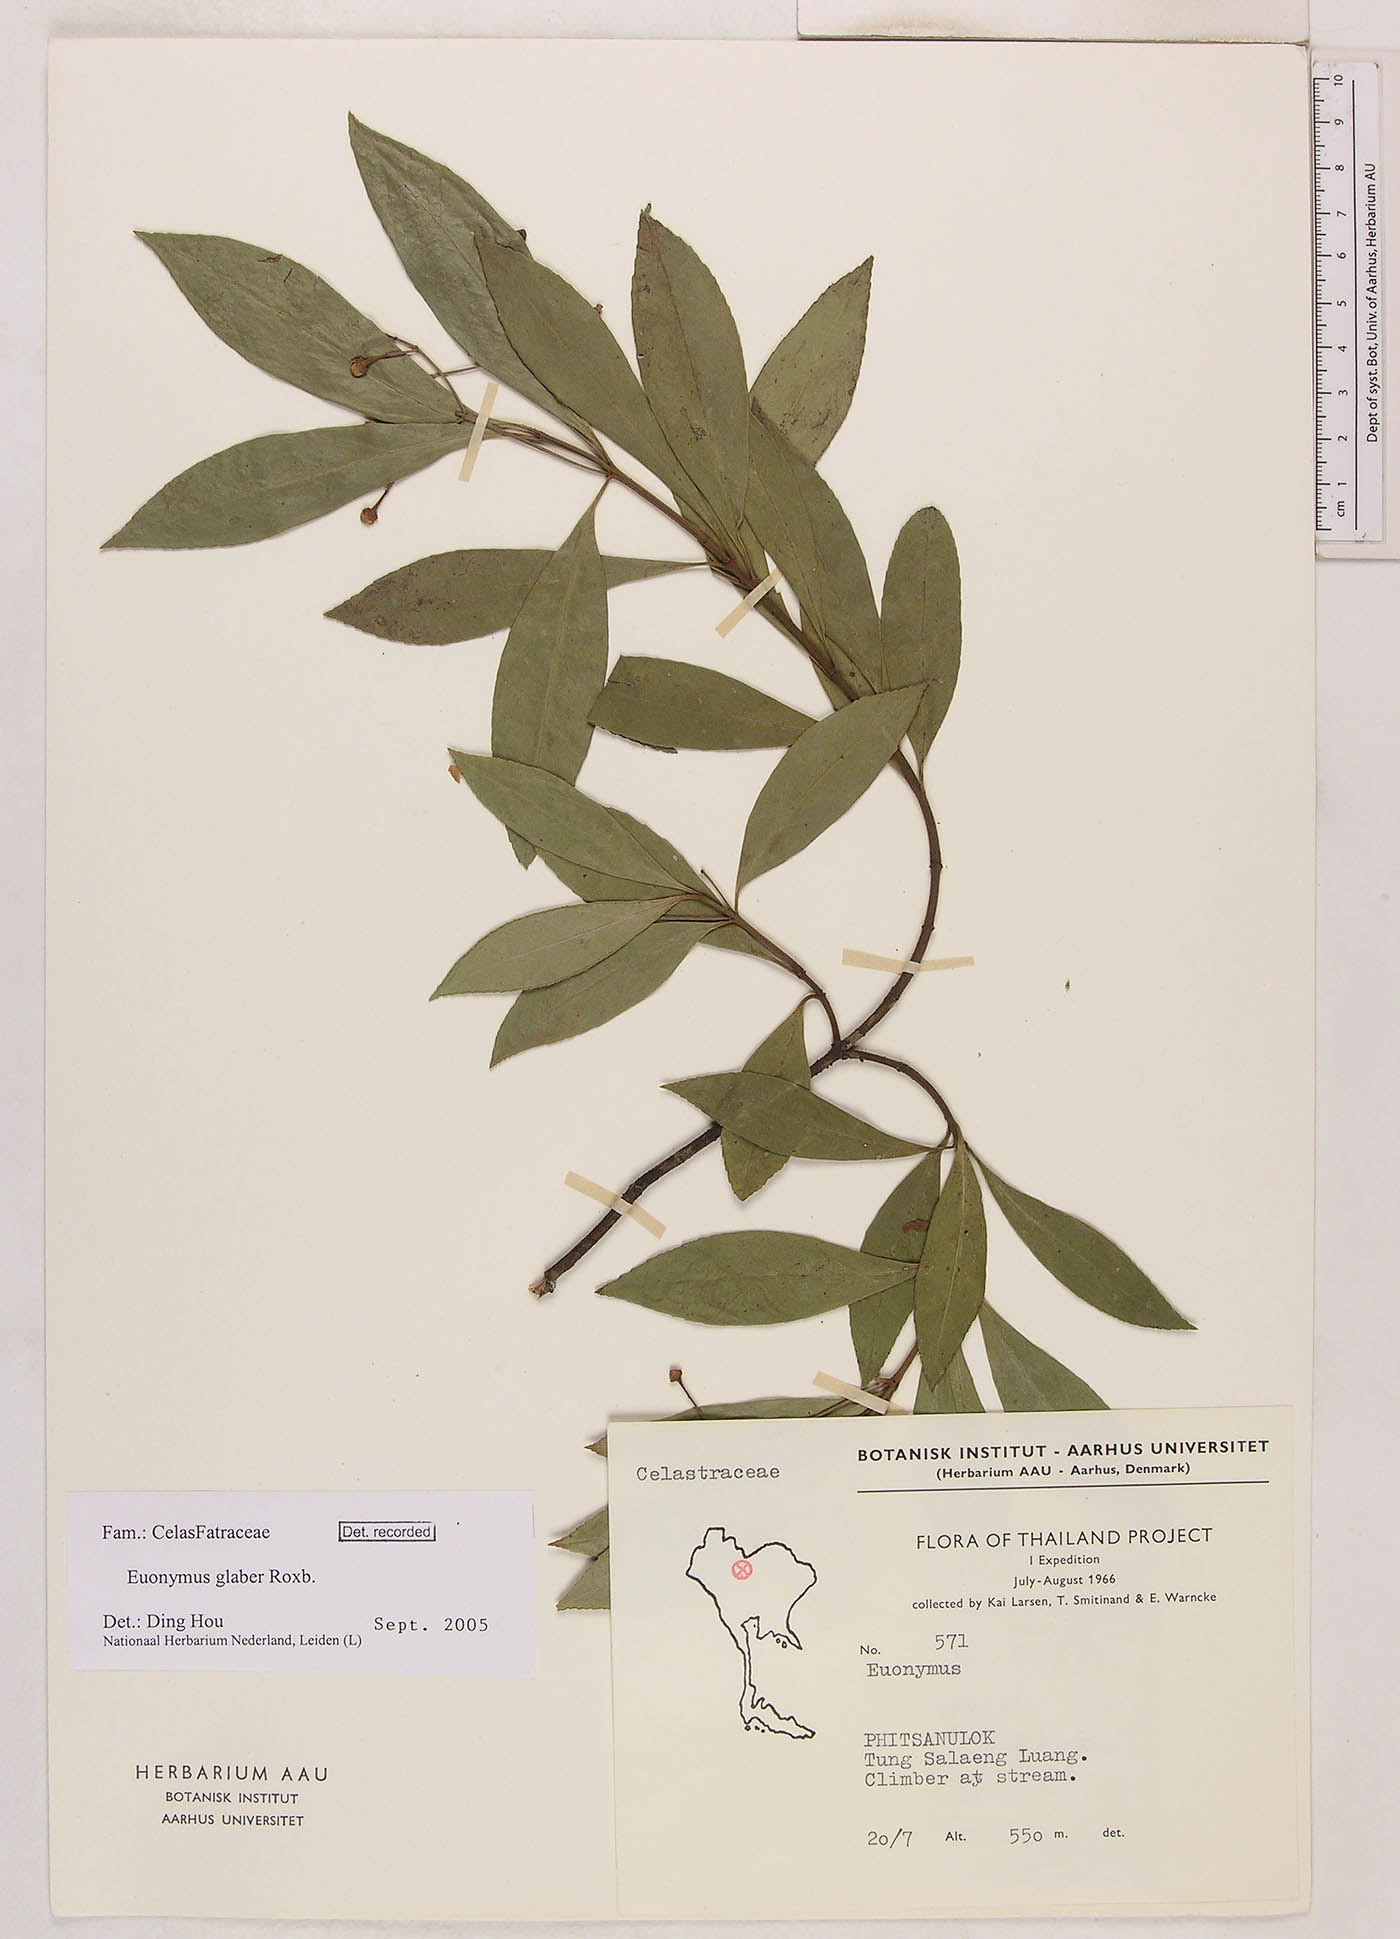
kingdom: Plantae
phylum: Tracheophyta
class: Magnoliopsida
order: Celastrales
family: Celastraceae
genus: Euonymus
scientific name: Euonymus glaber
